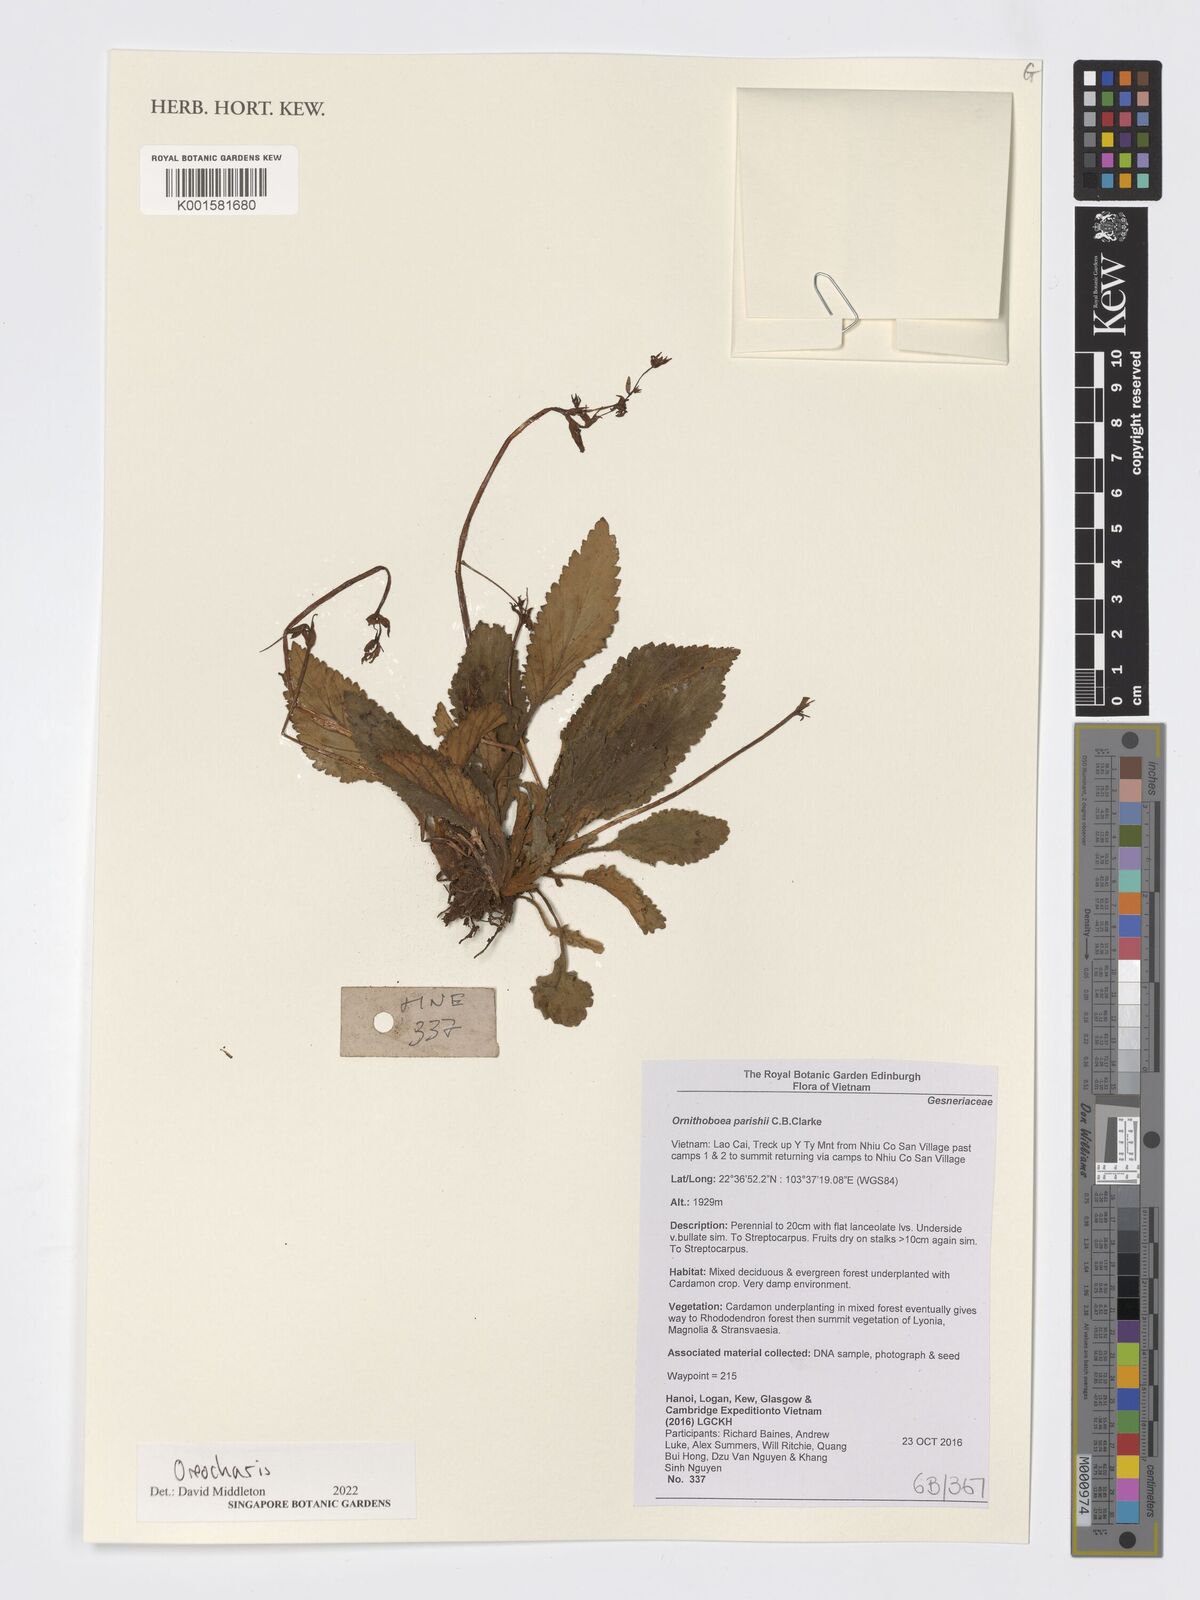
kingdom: Plantae
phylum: Tracheophyta
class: Magnoliopsida
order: Lamiales
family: Gesneriaceae
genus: Oreocharis
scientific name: Oreocharis
